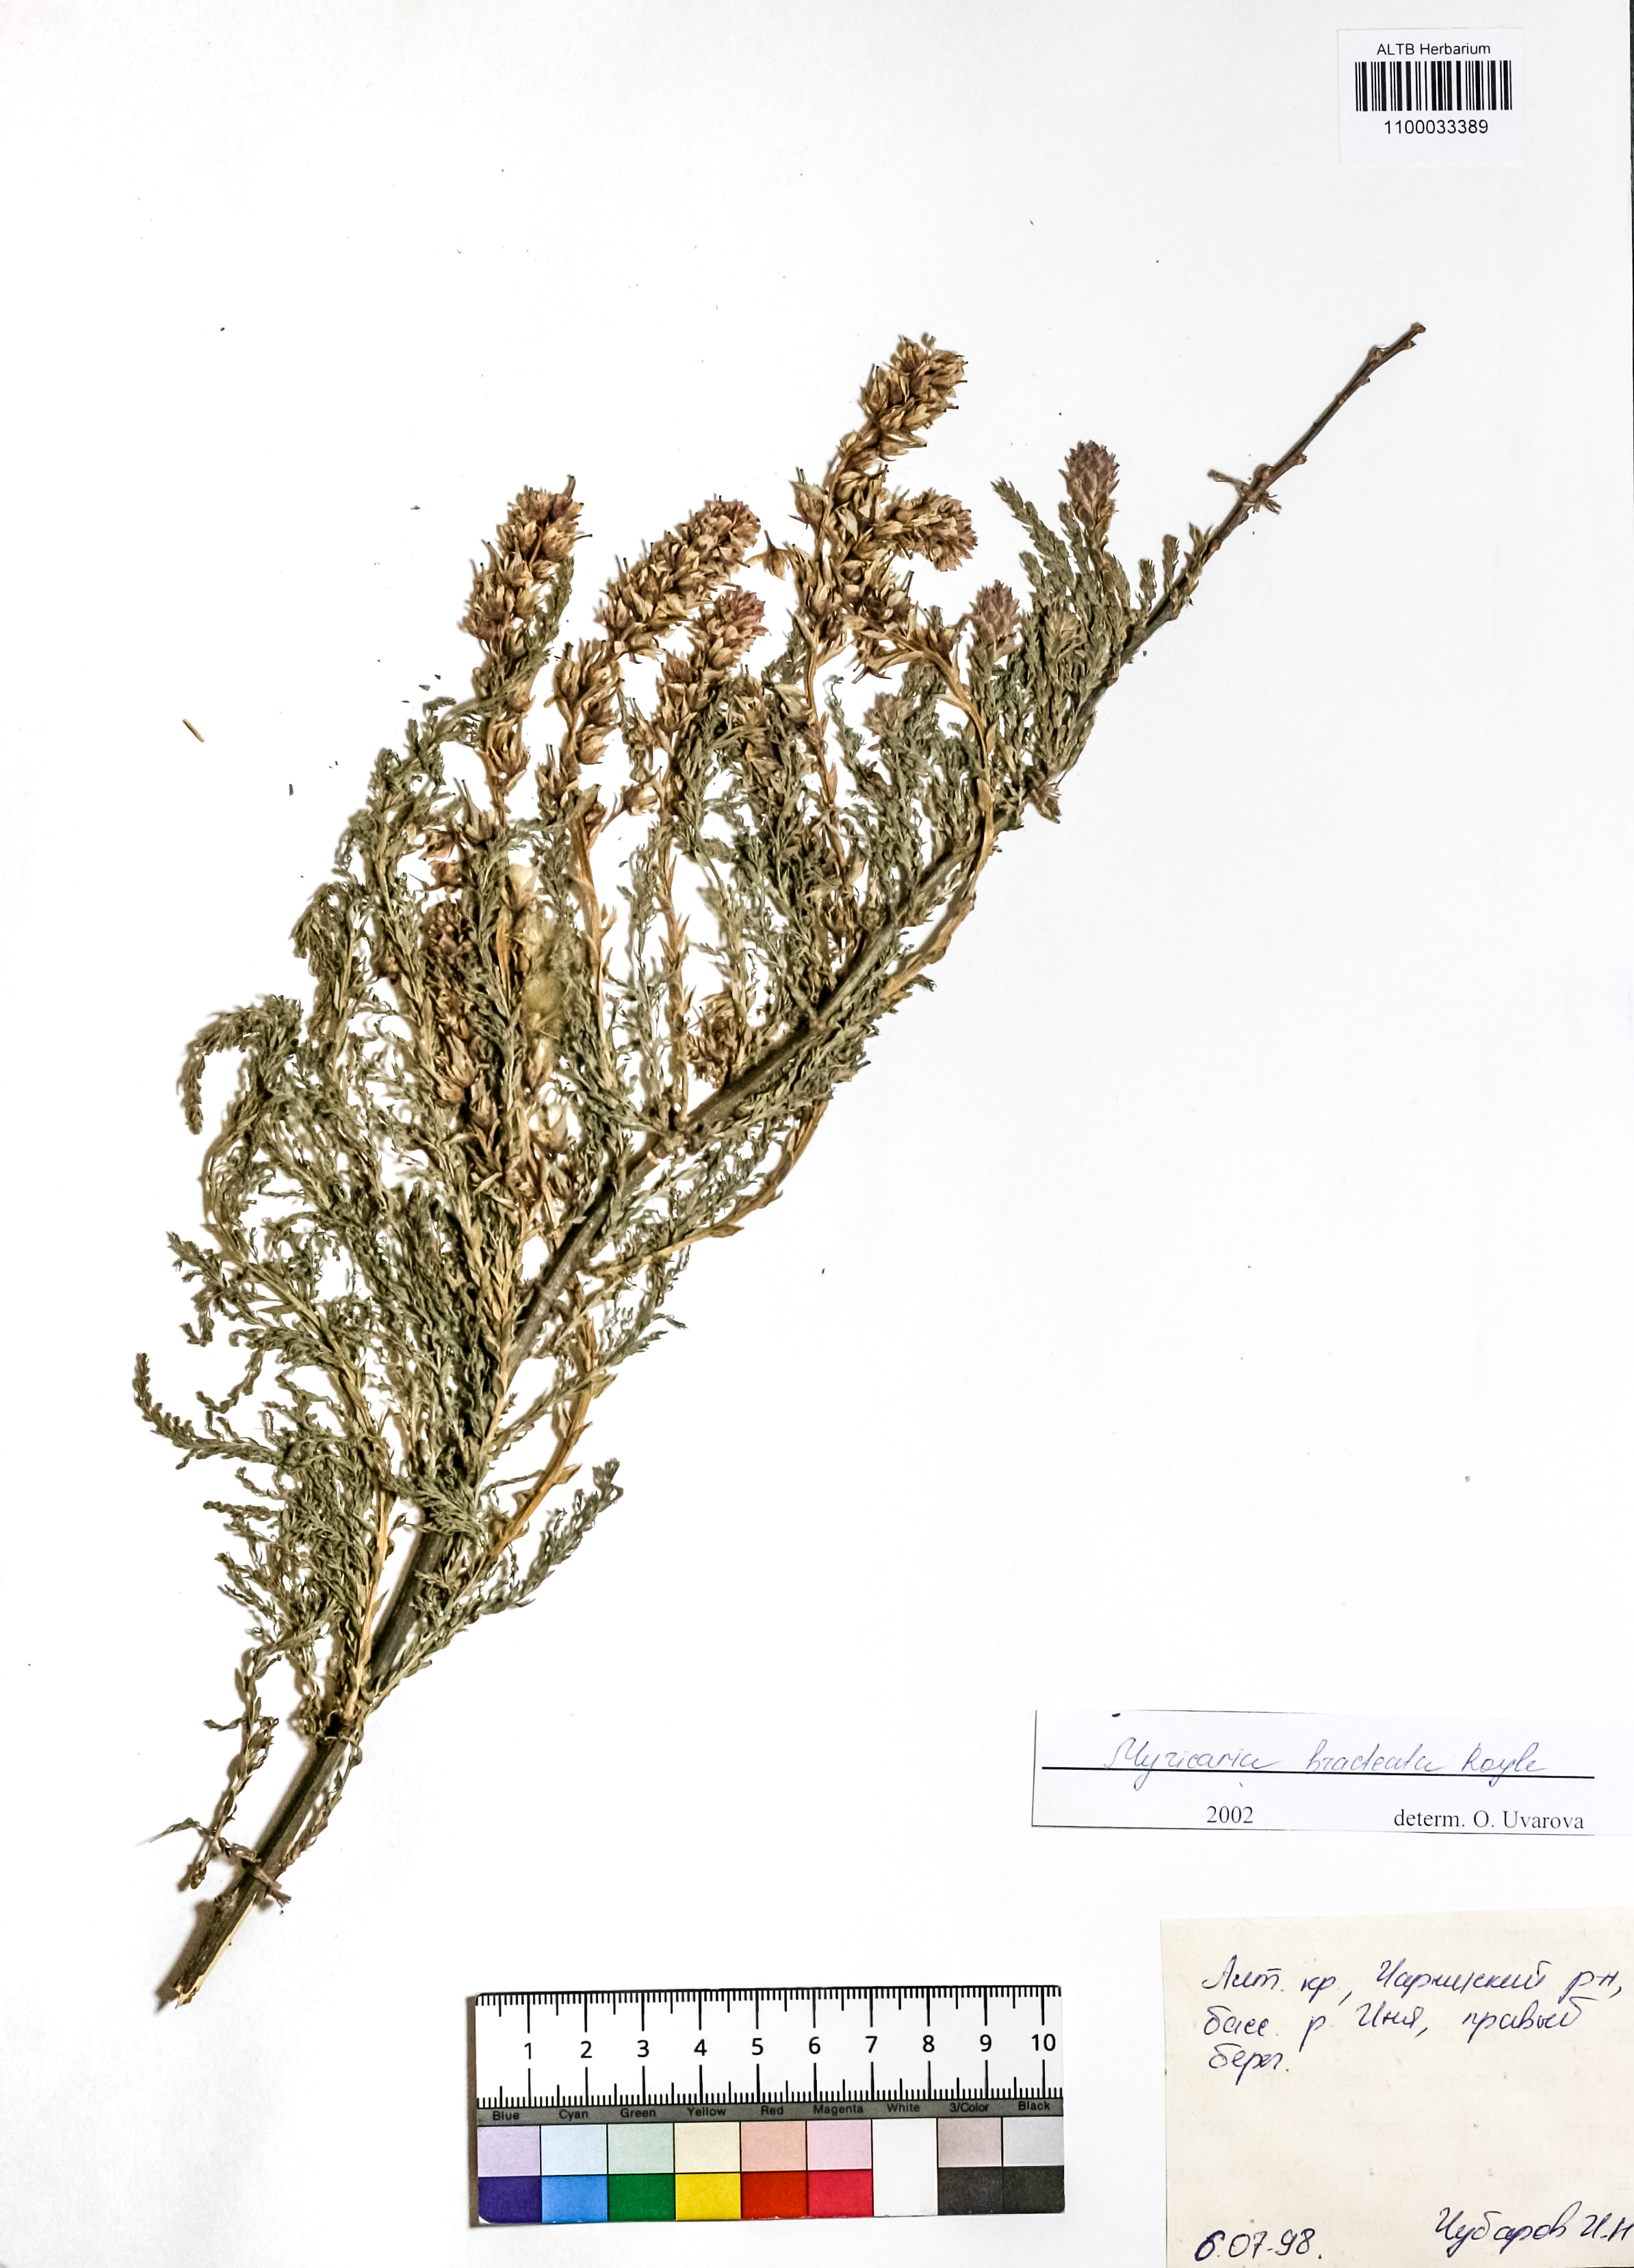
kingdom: Plantae
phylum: Tracheophyta
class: Magnoliopsida
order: Caryophyllales
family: Tamaricaceae
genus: Myricaria
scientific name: Myricaria bracteata
